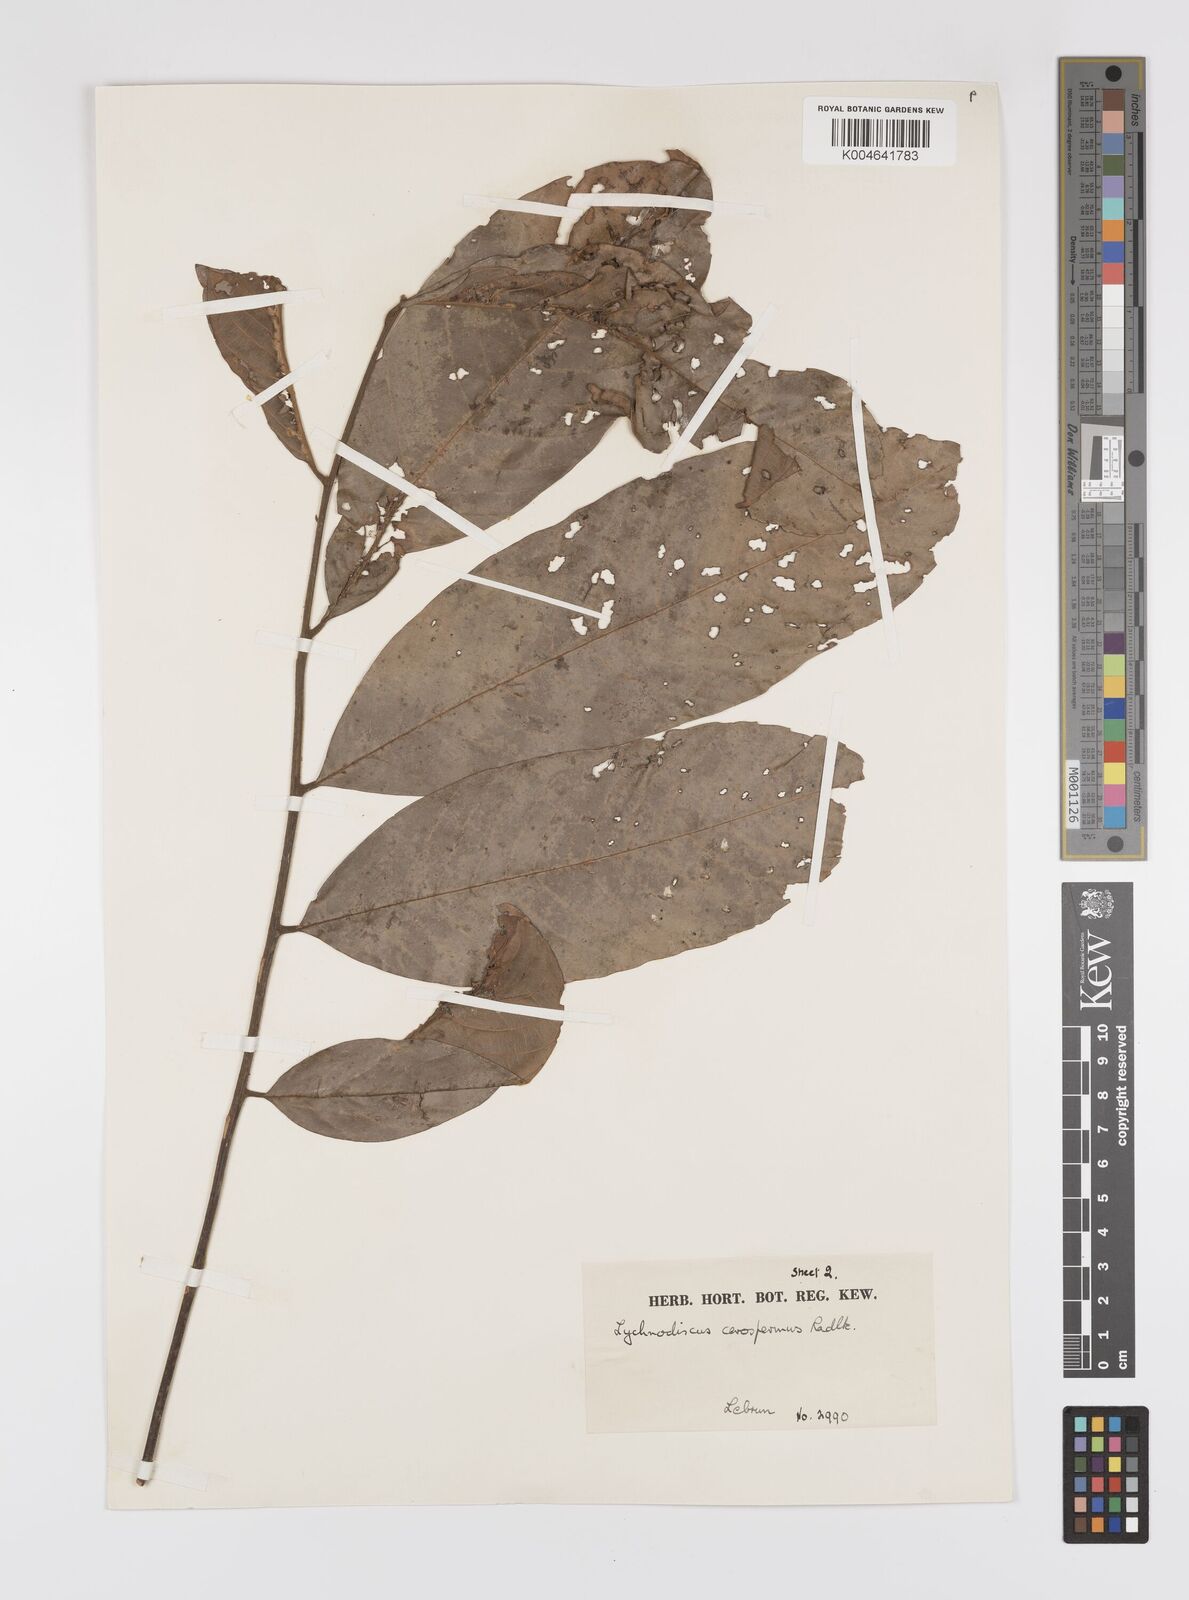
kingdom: Plantae
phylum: Tracheophyta
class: Magnoliopsida
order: Sapindales
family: Sapindaceae
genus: Lychnodiscus
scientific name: Lychnodiscus cerospermus
